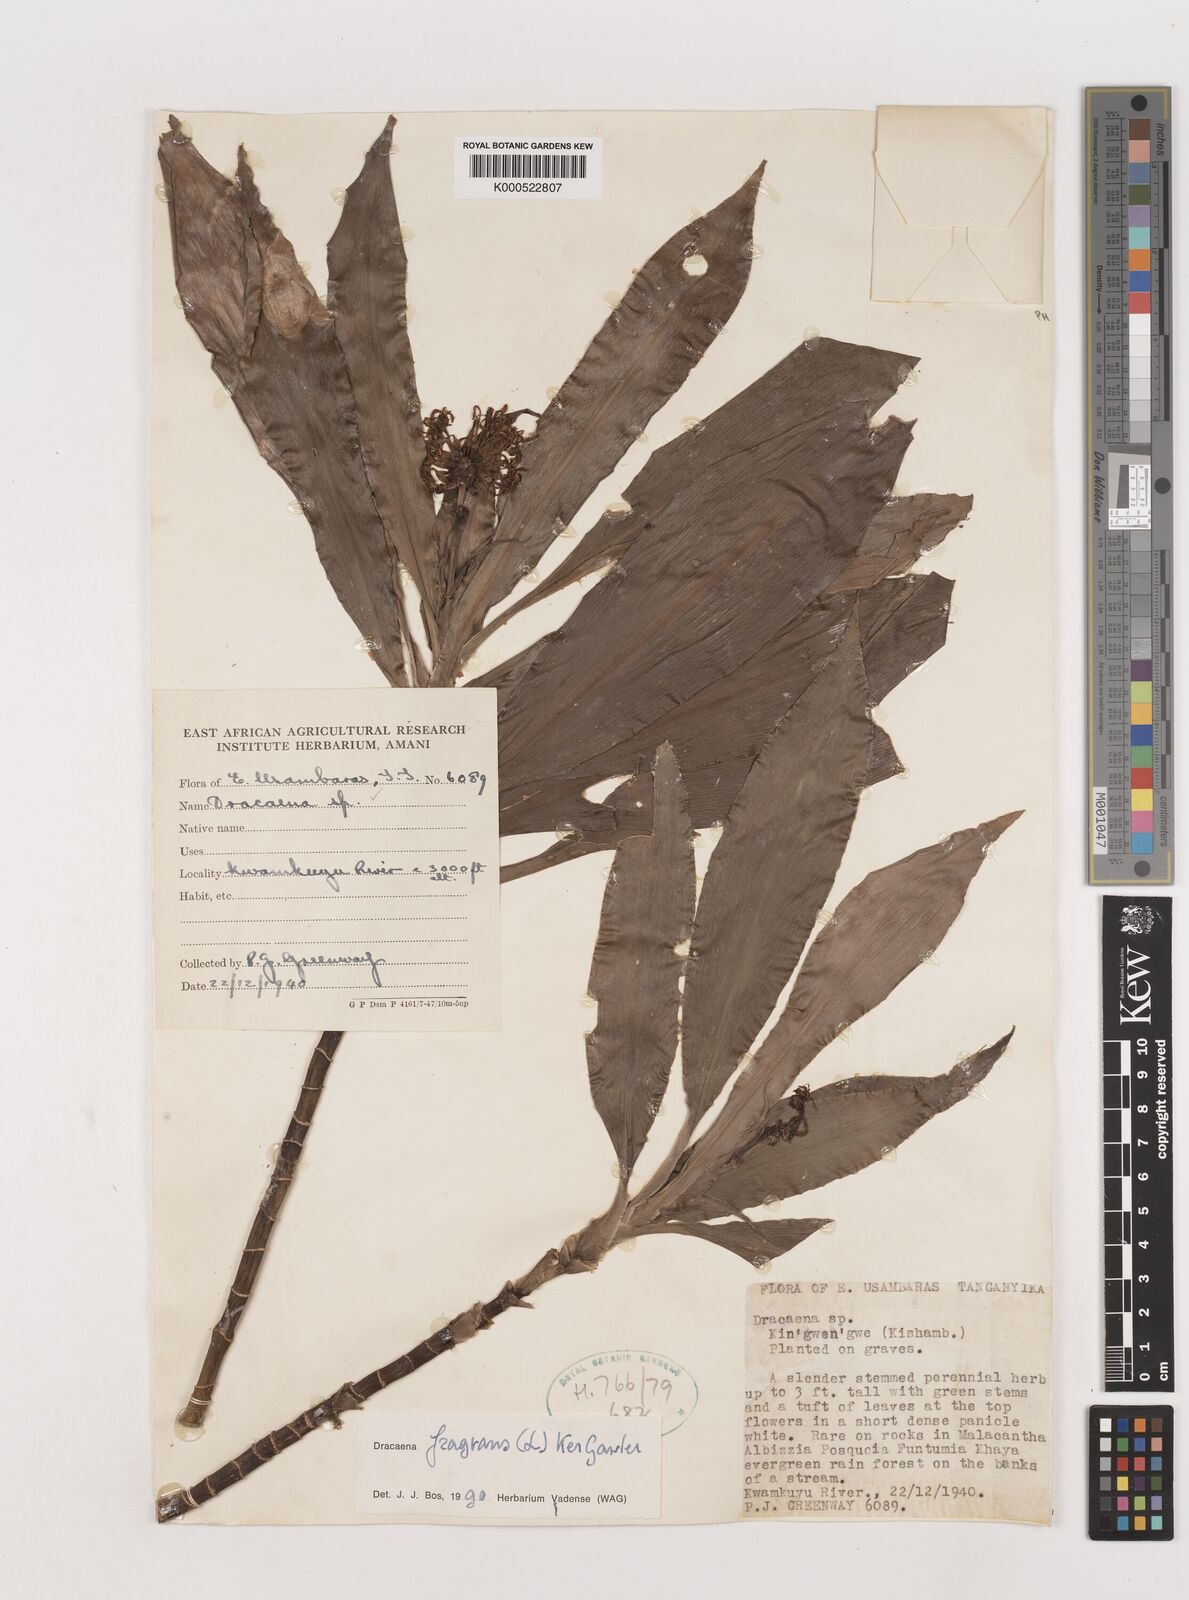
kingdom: Plantae
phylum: Tracheophyta
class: Liliopsida
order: Asparagales
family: Asparagaceae
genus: Dracaena
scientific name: Dracaena fragrans
